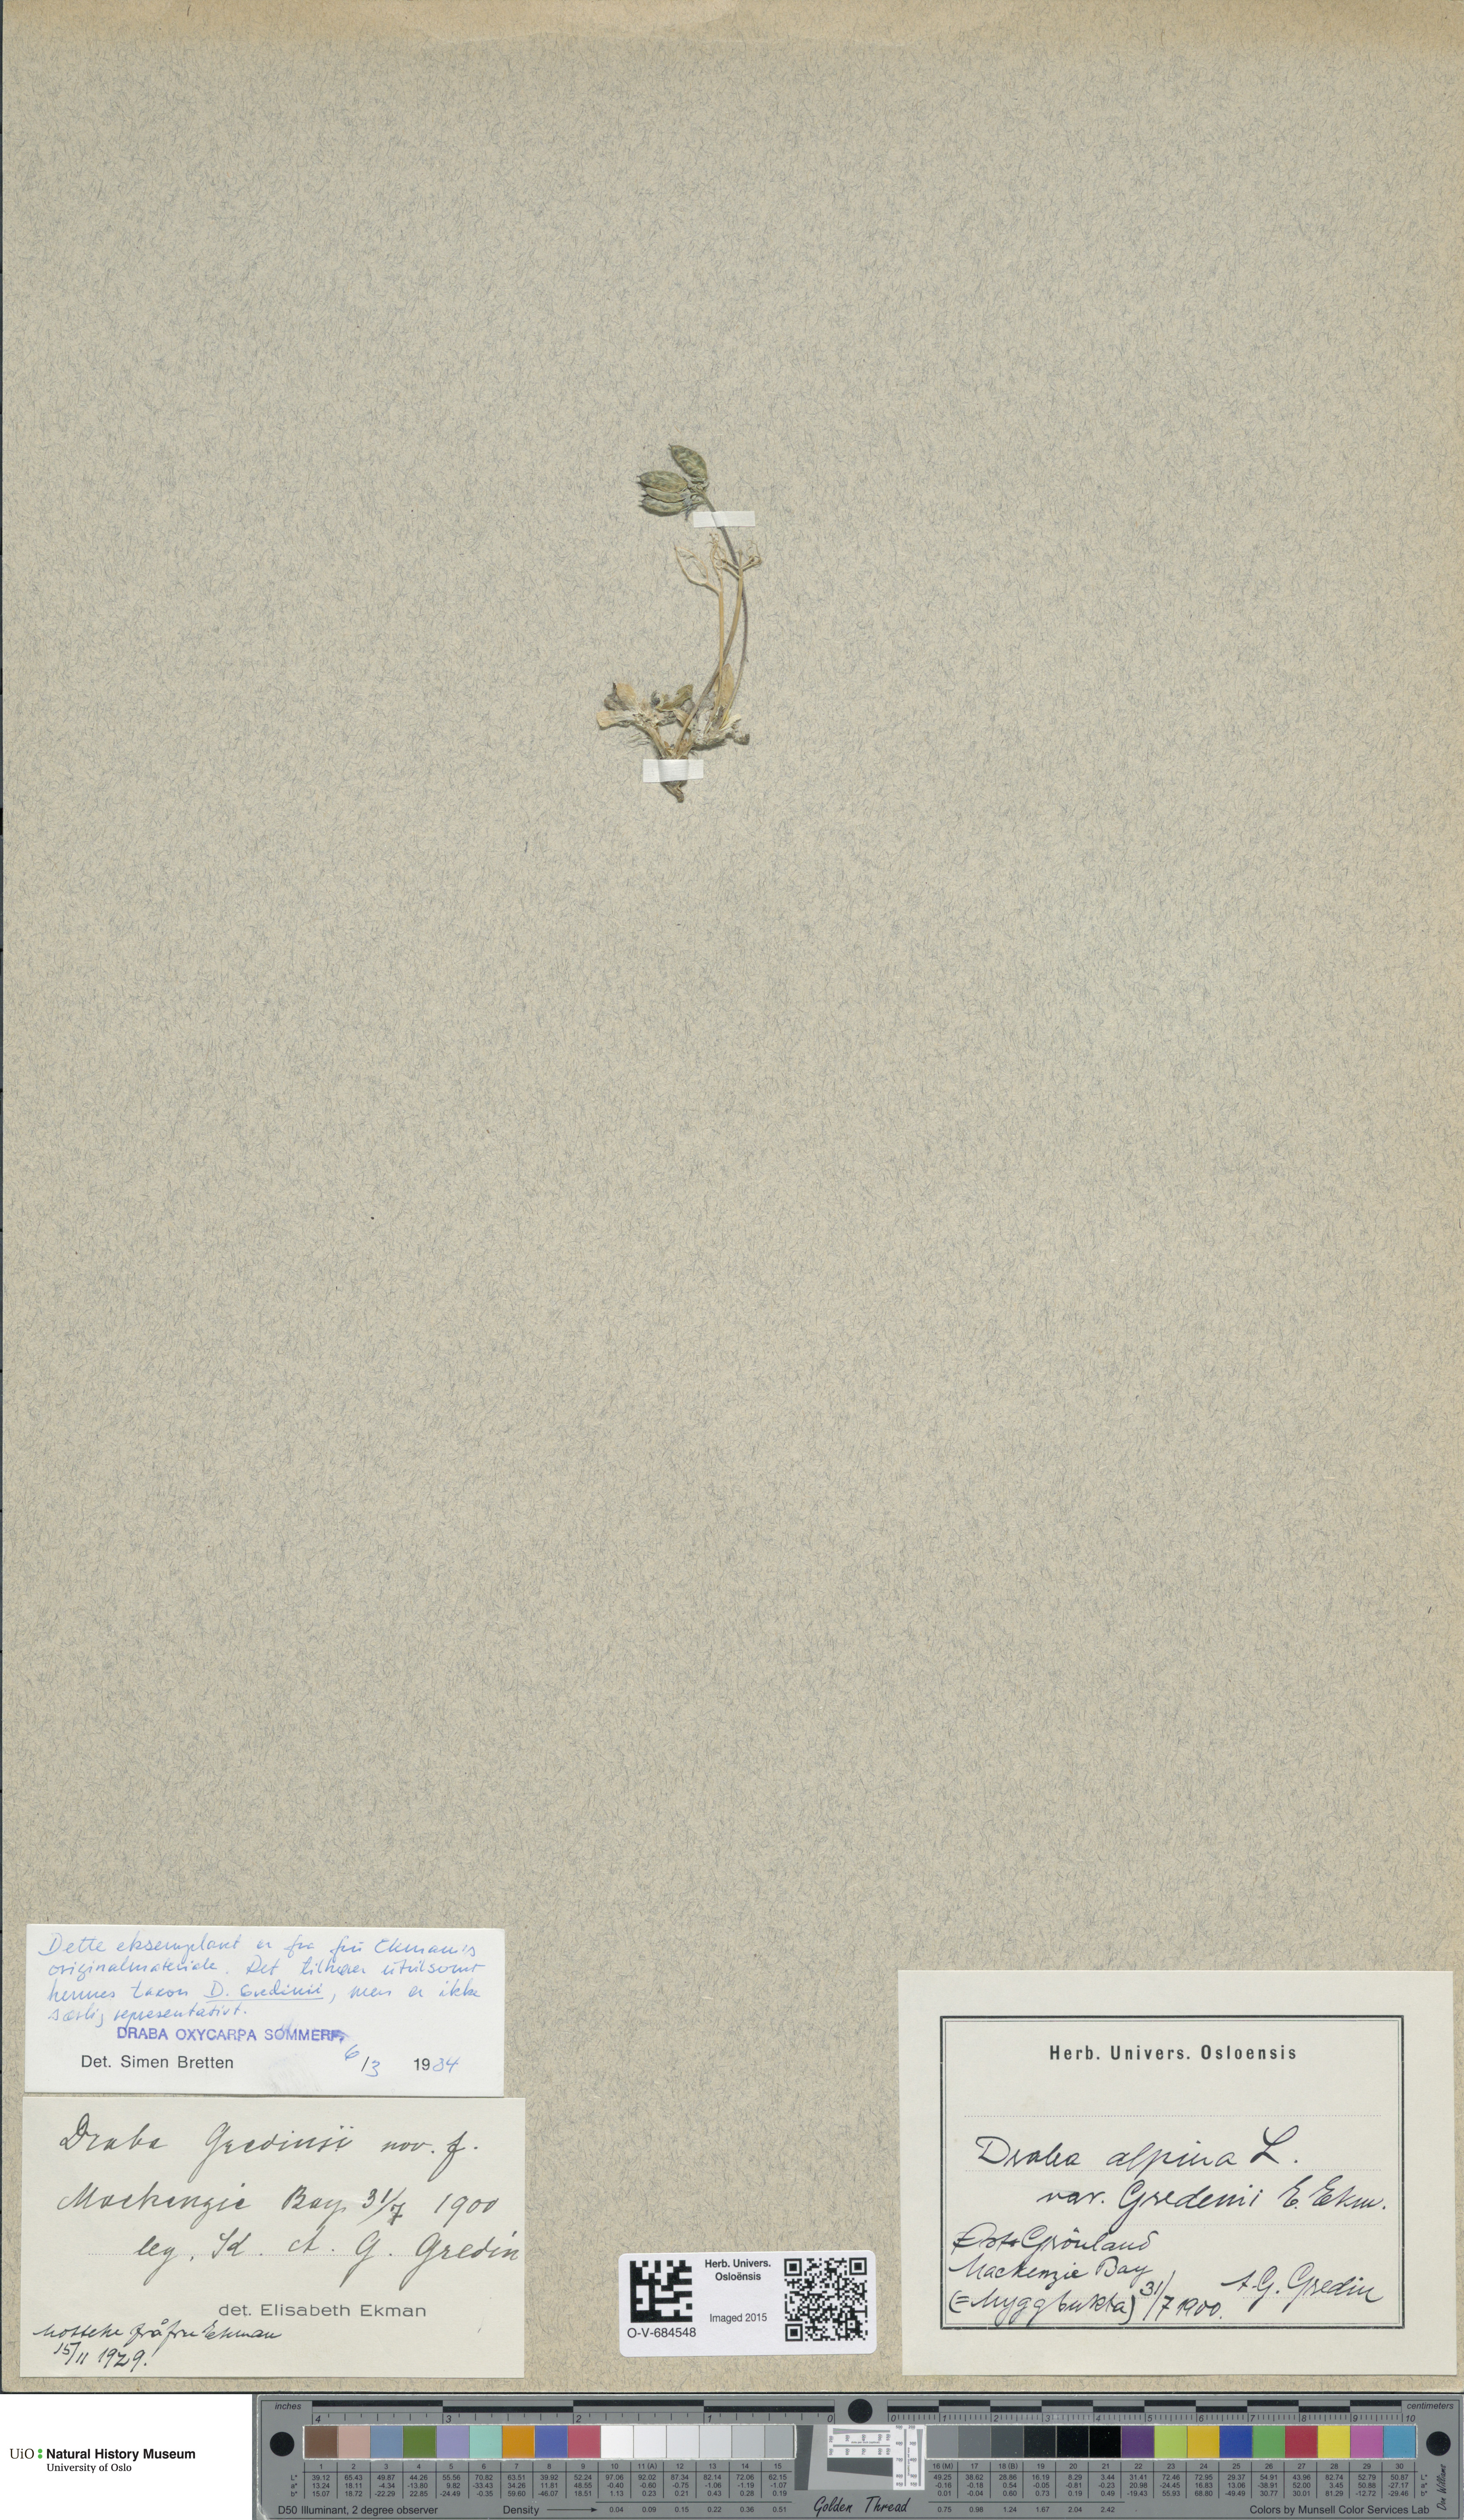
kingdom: Plantae
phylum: Tracheophyta
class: Magnoliopsida
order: Brassicales
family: Brassicaceae
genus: Draba
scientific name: Draba oxycarpa
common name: Sharp-fruited whitlow-grass
